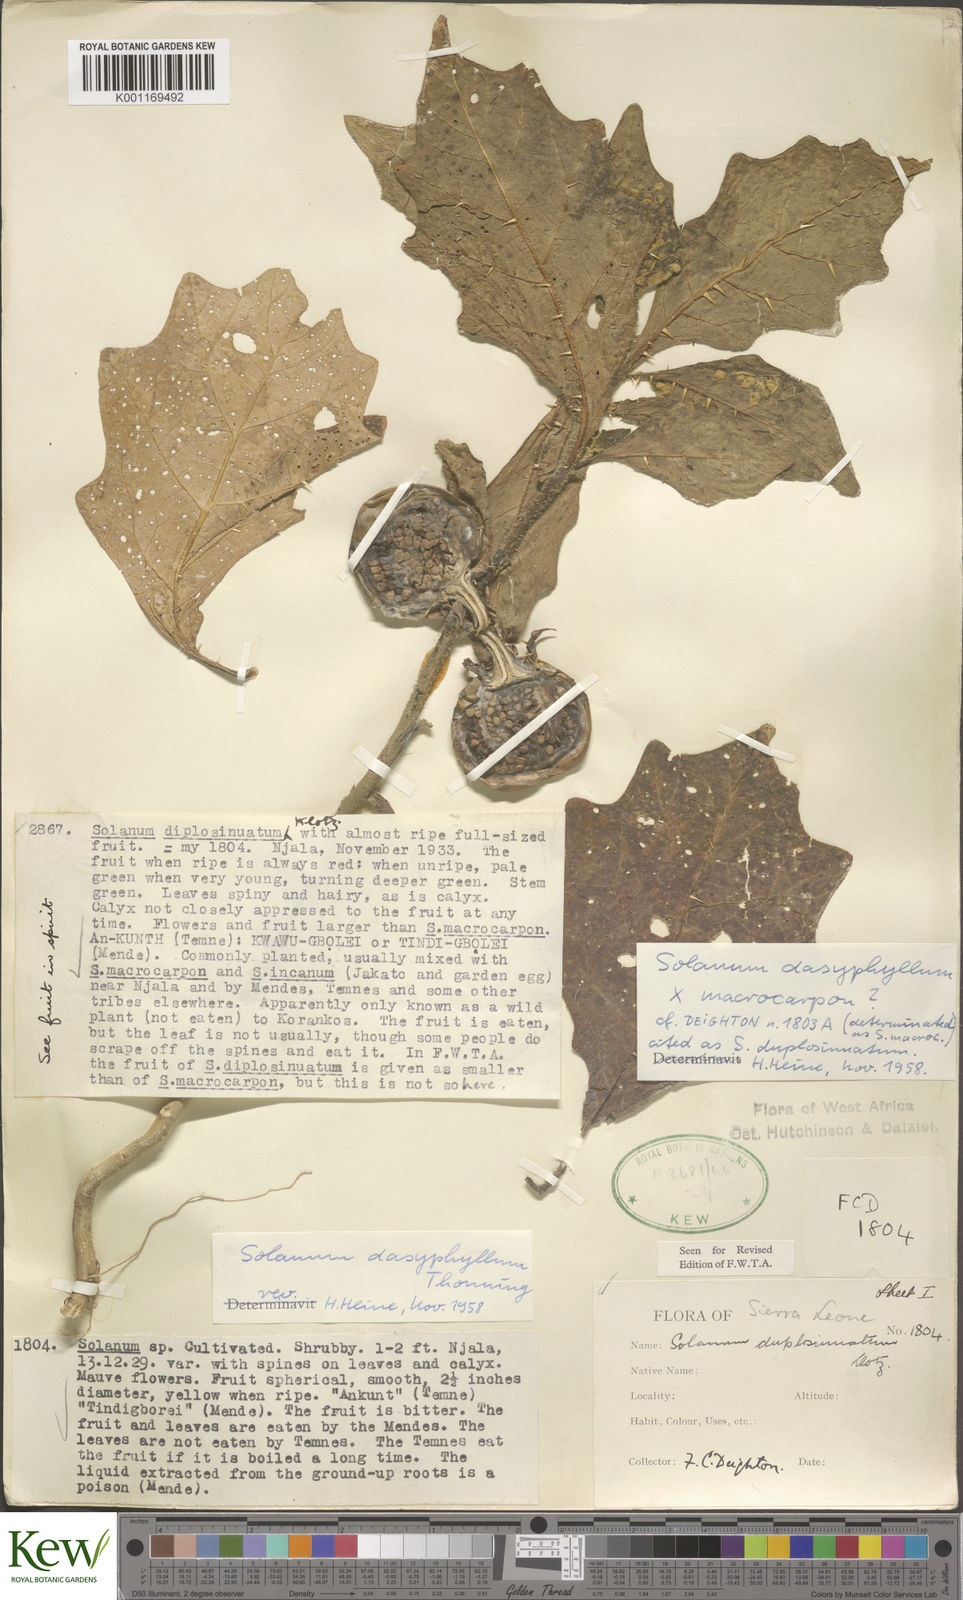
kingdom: Plantae
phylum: Tracheophyta
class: Magnoliopsida
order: Solanales
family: Solanaceae
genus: Solanum
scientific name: Solanum dasyphyllum
